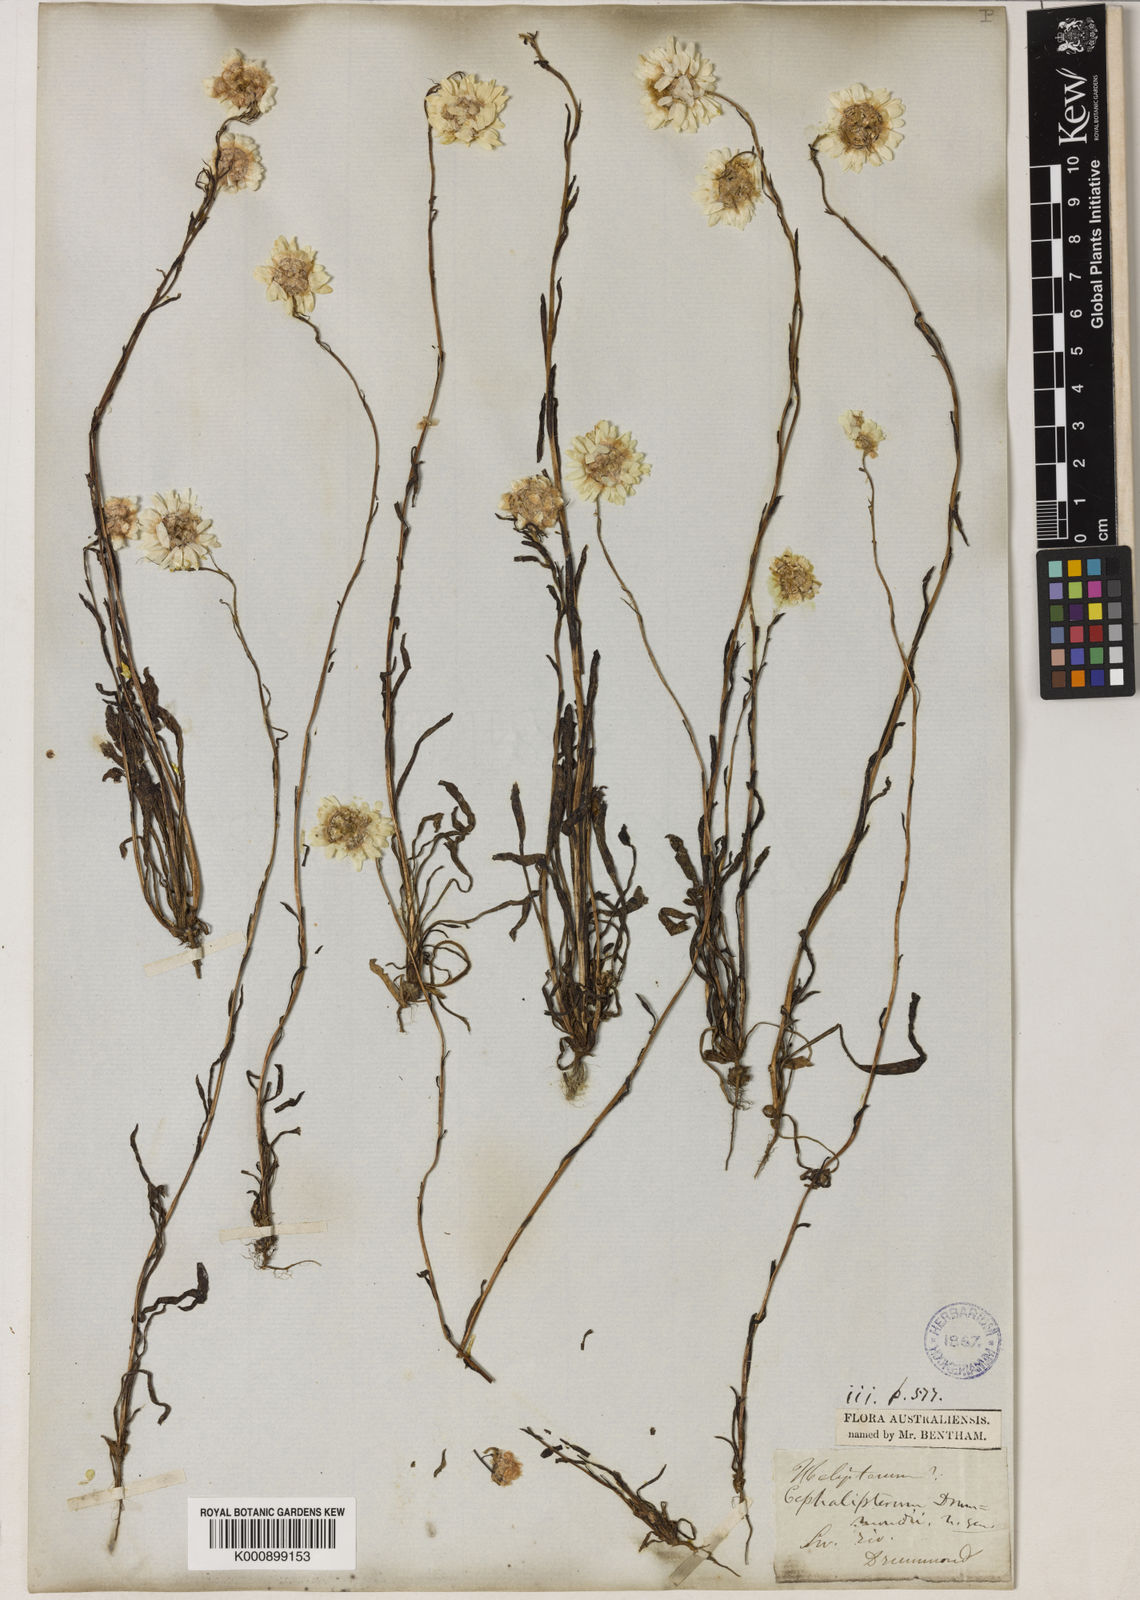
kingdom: Plantae
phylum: Tracheophyta
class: Magnoliopsida
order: Asterales
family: Asteraceae
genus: Cephalipterum
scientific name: Cephalipterum drummondii
